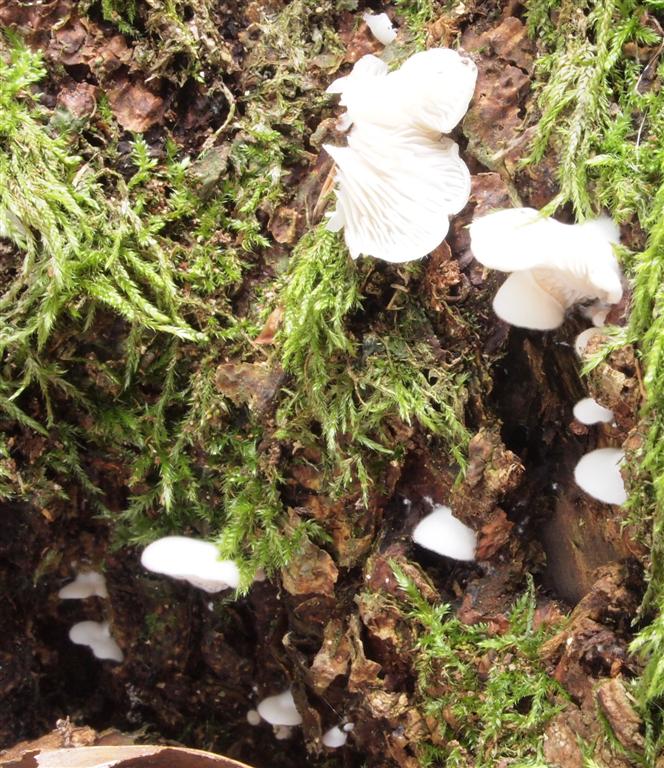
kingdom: Fungi
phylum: Basidiomycota
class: Agaricomycetes
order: Agaricales
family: Entolomataceae
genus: Clitopilus
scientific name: Clitopilus hobsonii
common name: Miller's oysterling
